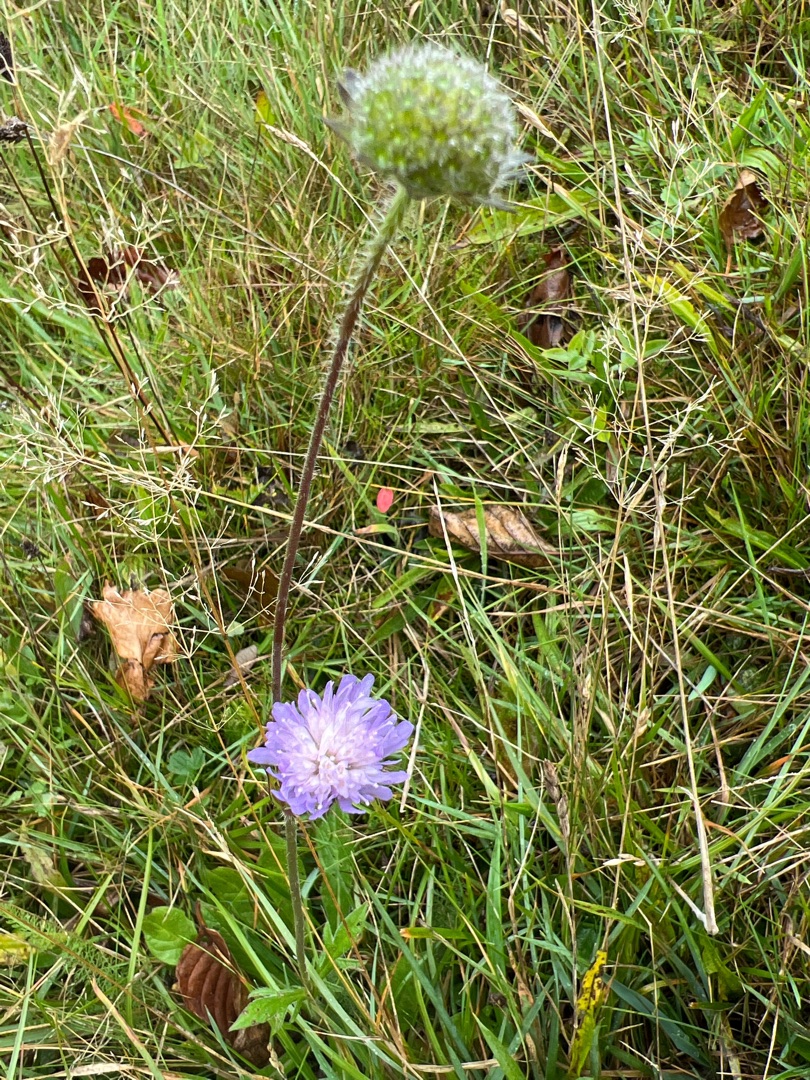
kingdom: Plantae
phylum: Tracheophyta
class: Magnoliopsida
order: Dipsacales
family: Caprifoliaceae
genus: Knautia
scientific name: Knautia arvensis
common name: Blåhat
